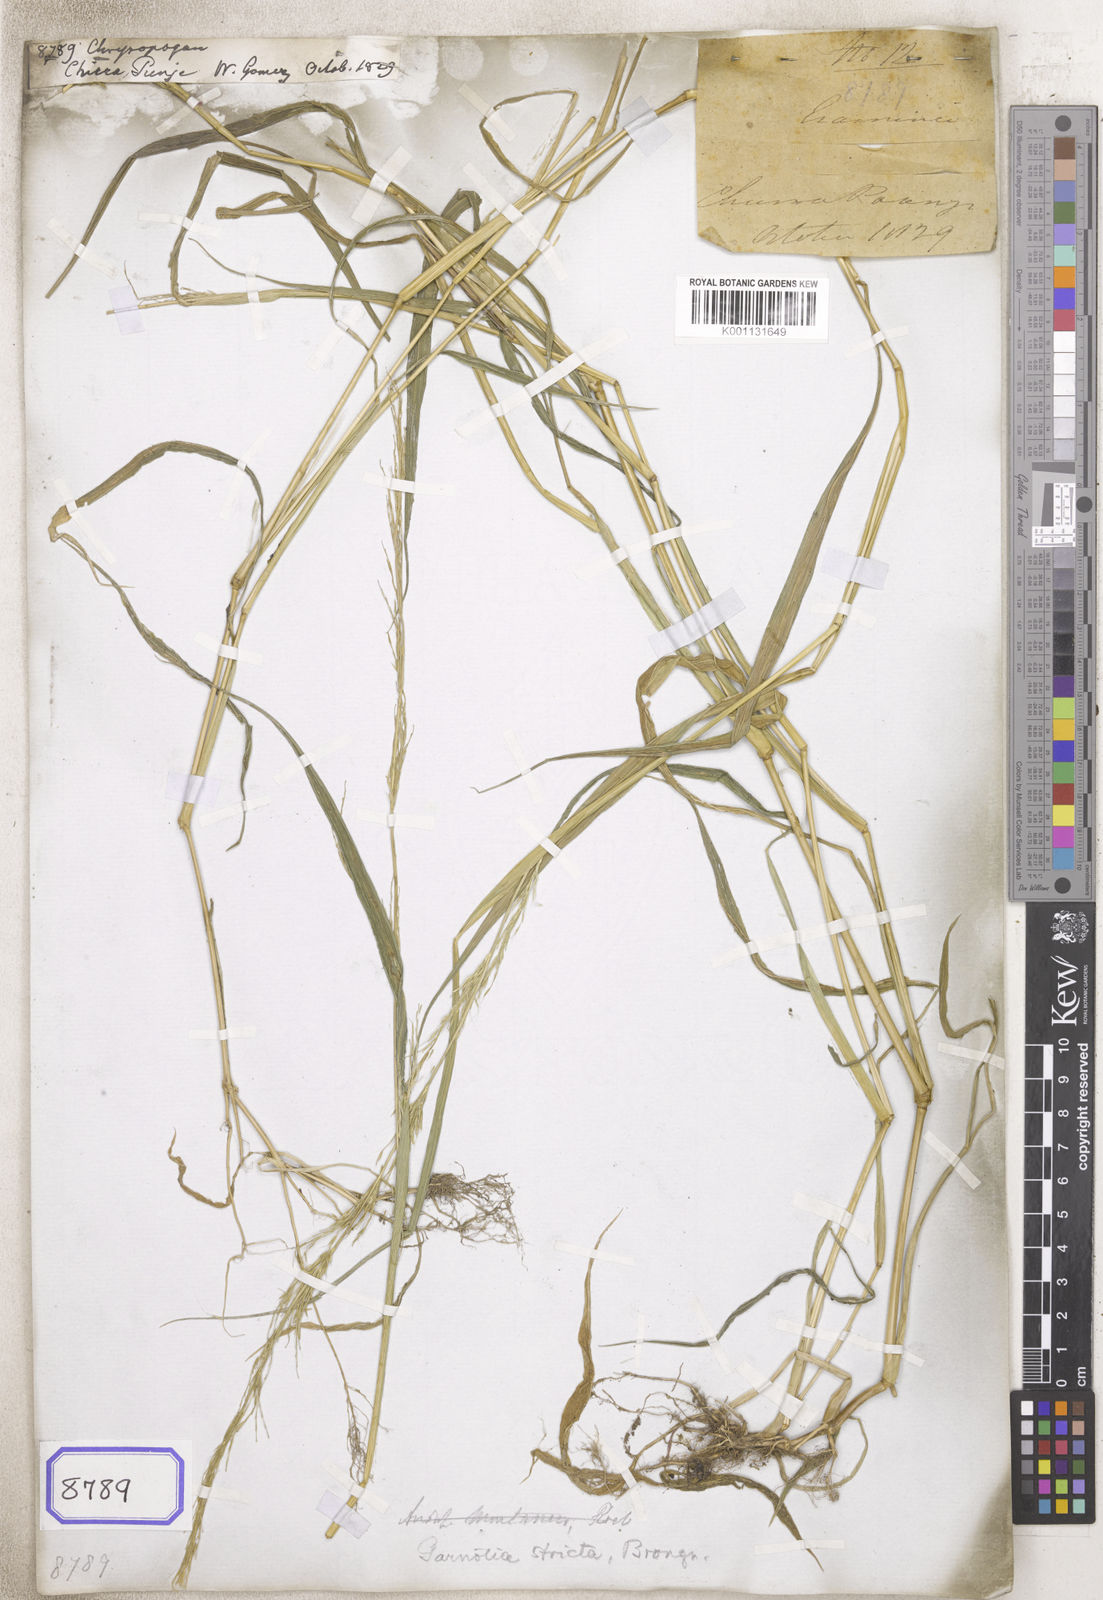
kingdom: Plantae
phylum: Tracheophyta
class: Liliopsida
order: Poales
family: Poaceae
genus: Chrysopogon
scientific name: Chrysopogon
